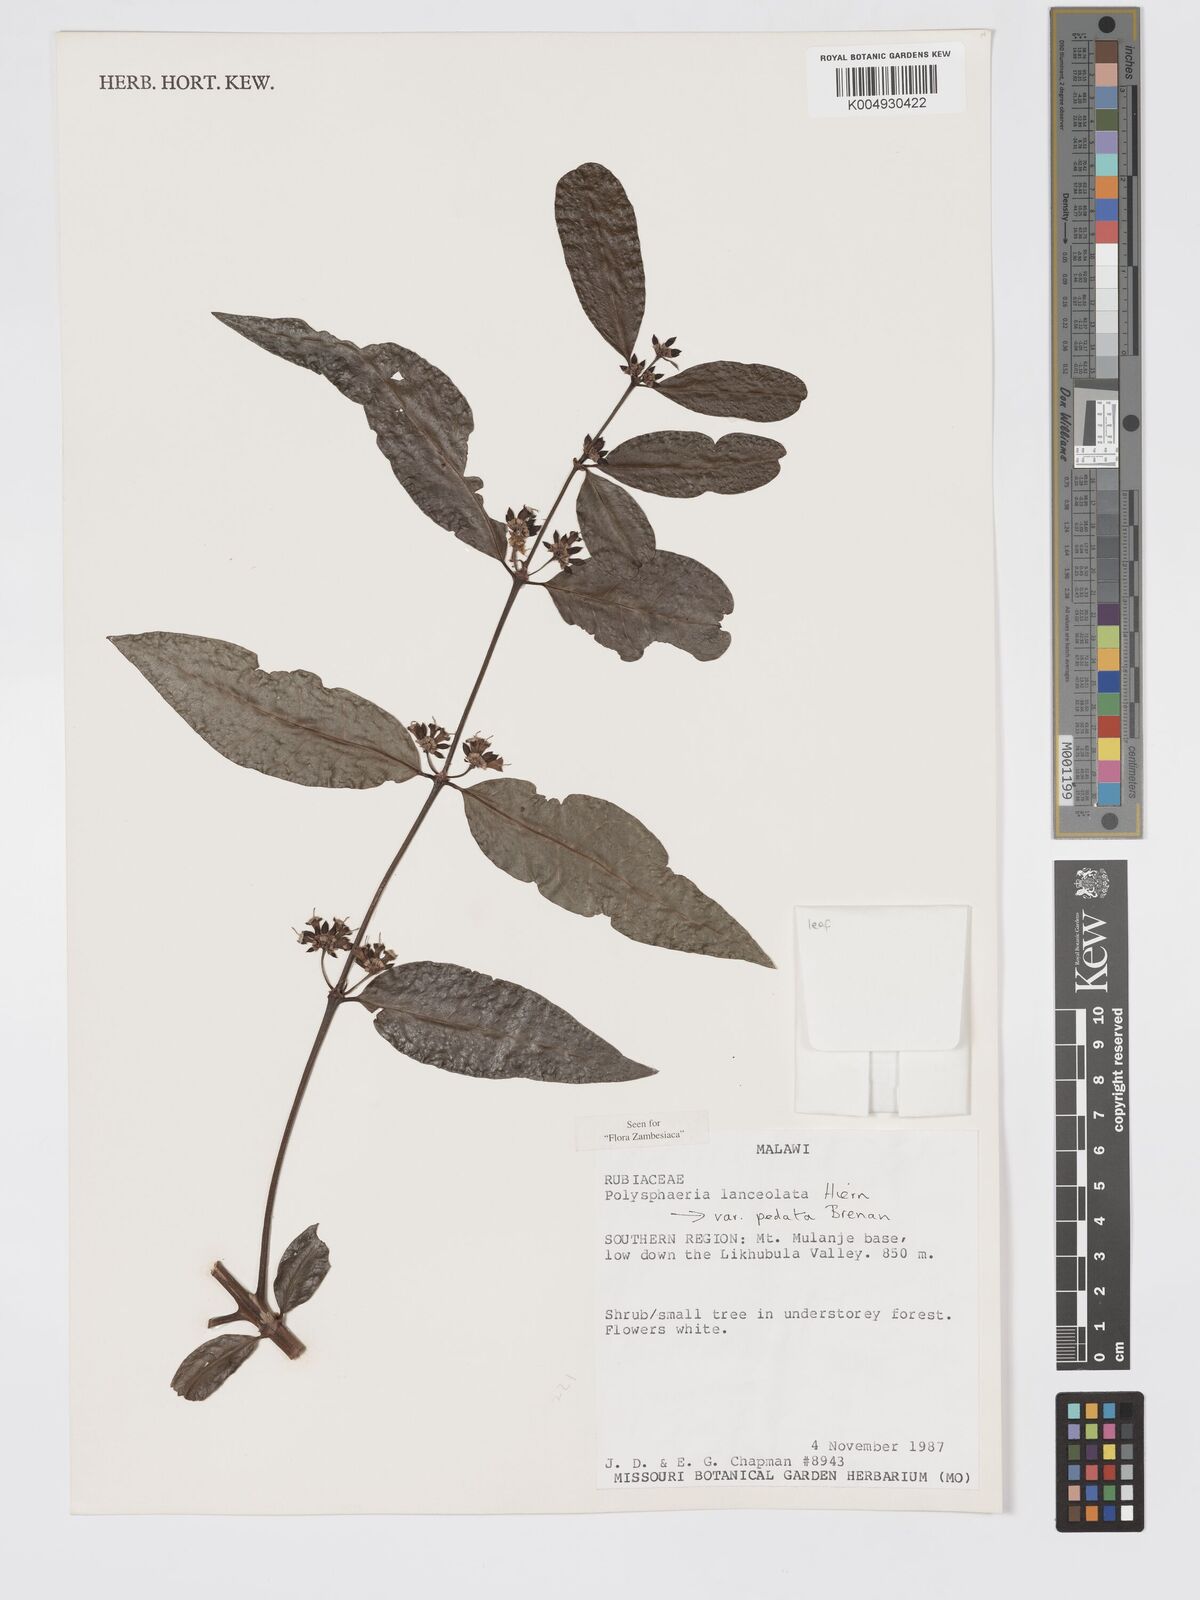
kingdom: Plantae
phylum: Tracheophyta
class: Magnoliopsida
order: Gentianales
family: Rubiaceae
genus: Polysphaeria
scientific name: Polysphaeria lanceolata
